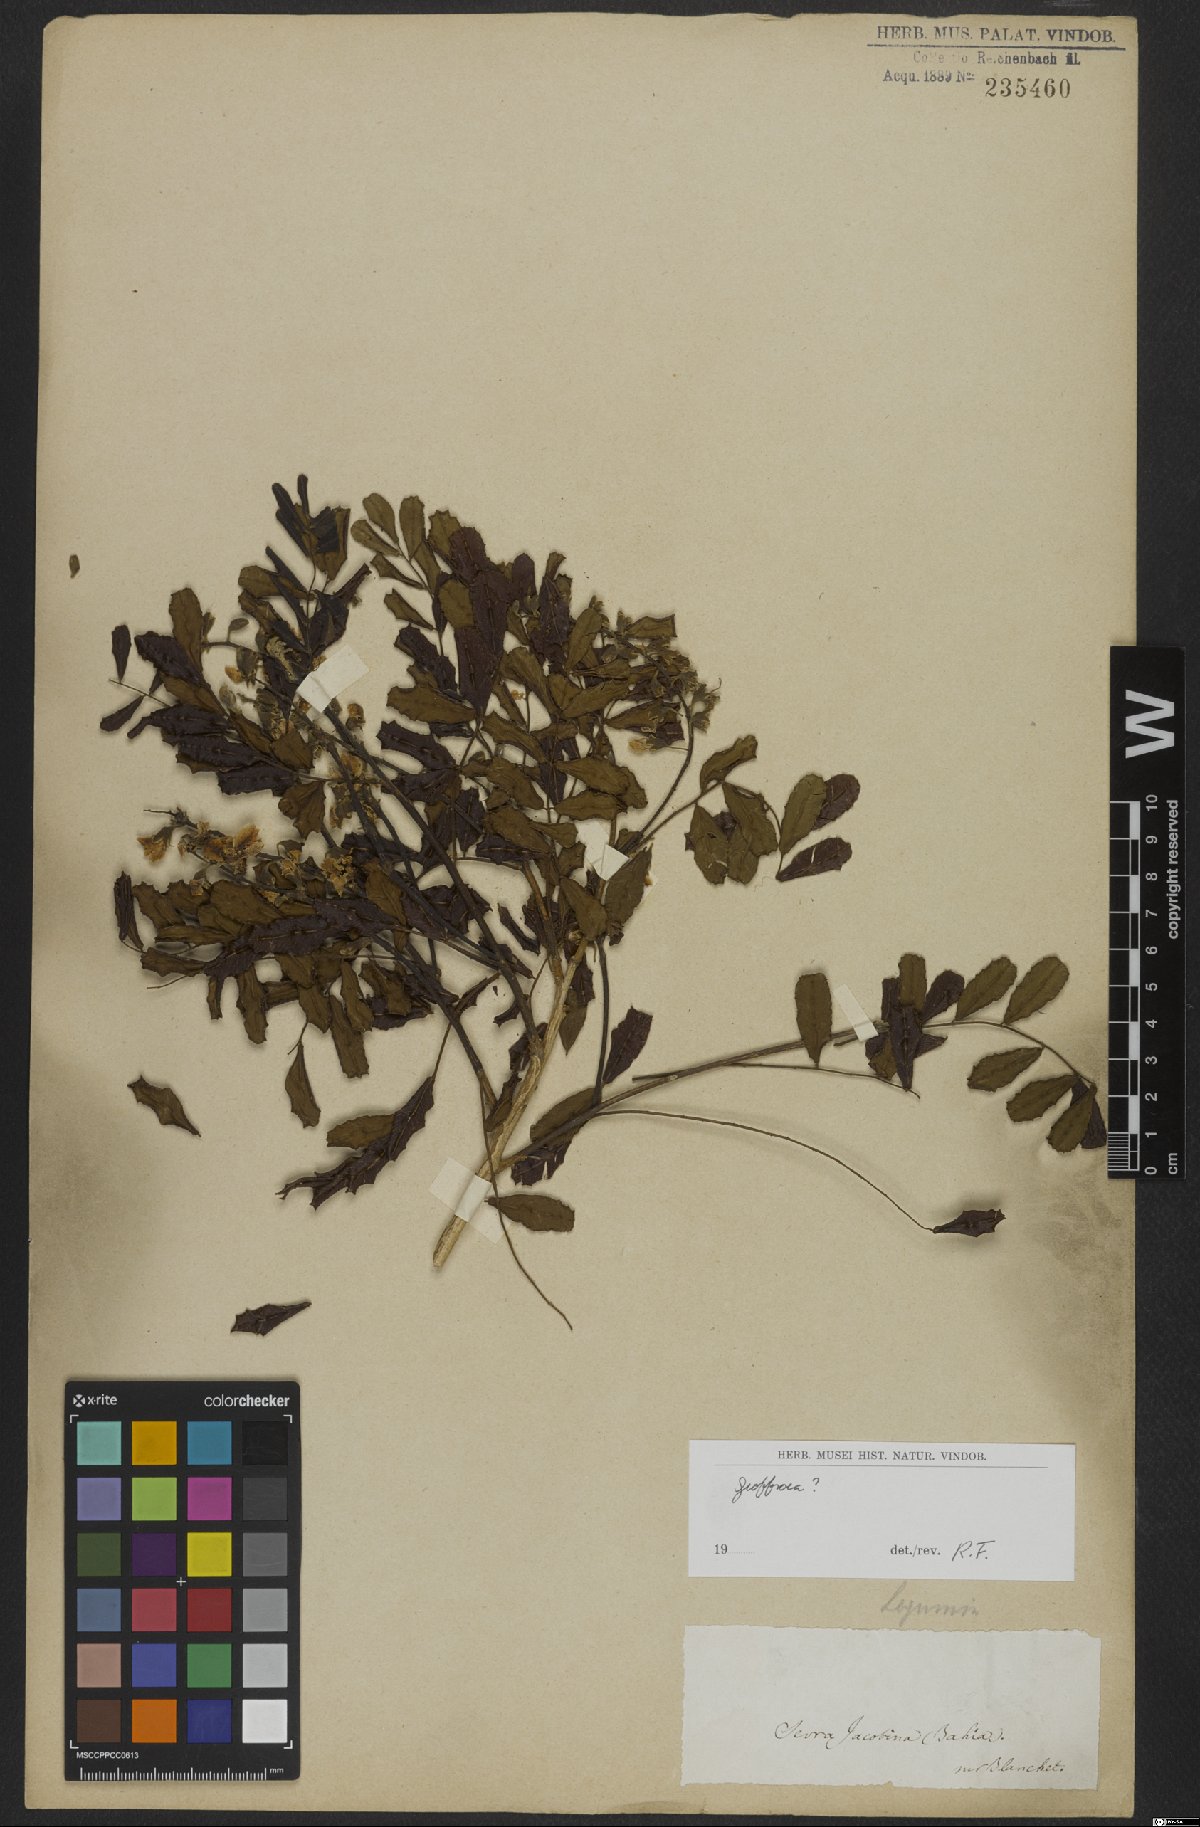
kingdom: Plantae
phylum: Tracheophyta
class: Magnoliopsida
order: Fabales
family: Fabaceae
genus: Geoffroea
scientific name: Geoffroea
